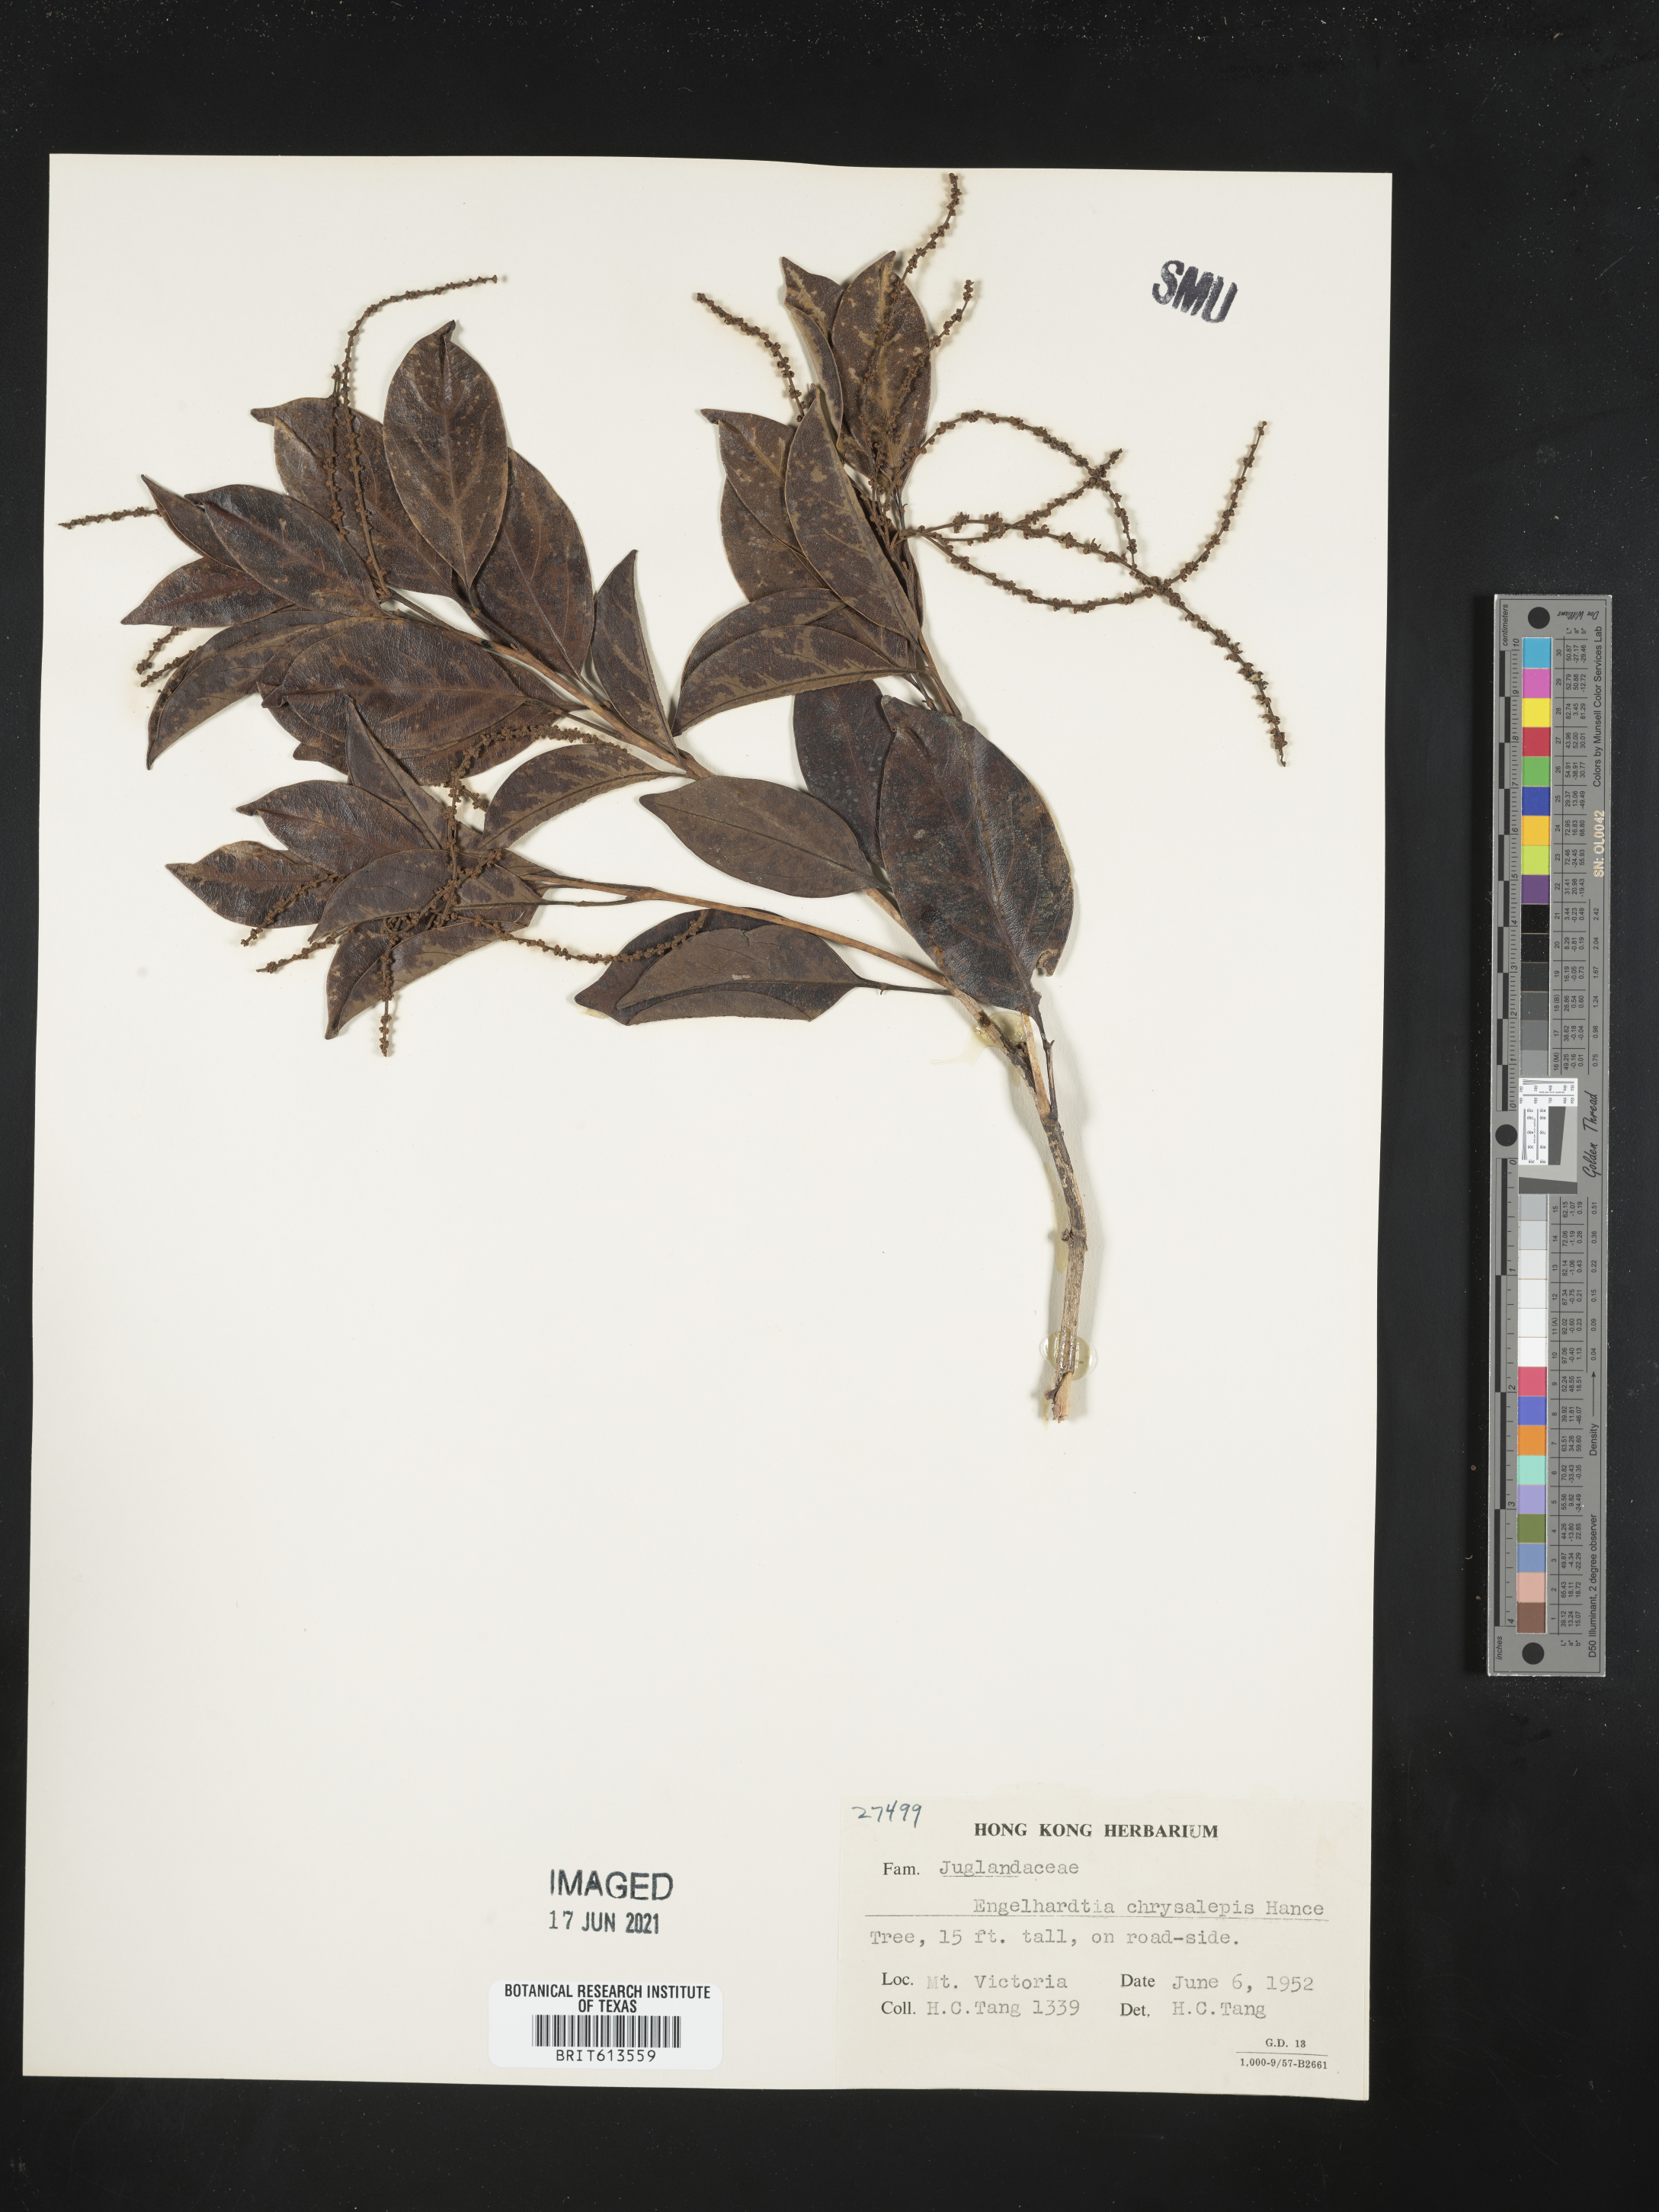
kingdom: Plantae
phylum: Tracheophyta
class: Magnoliopsida
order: Fagales
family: Juglandaceae
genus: Engelhardtia
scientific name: Engelhardtia roxburghiana
